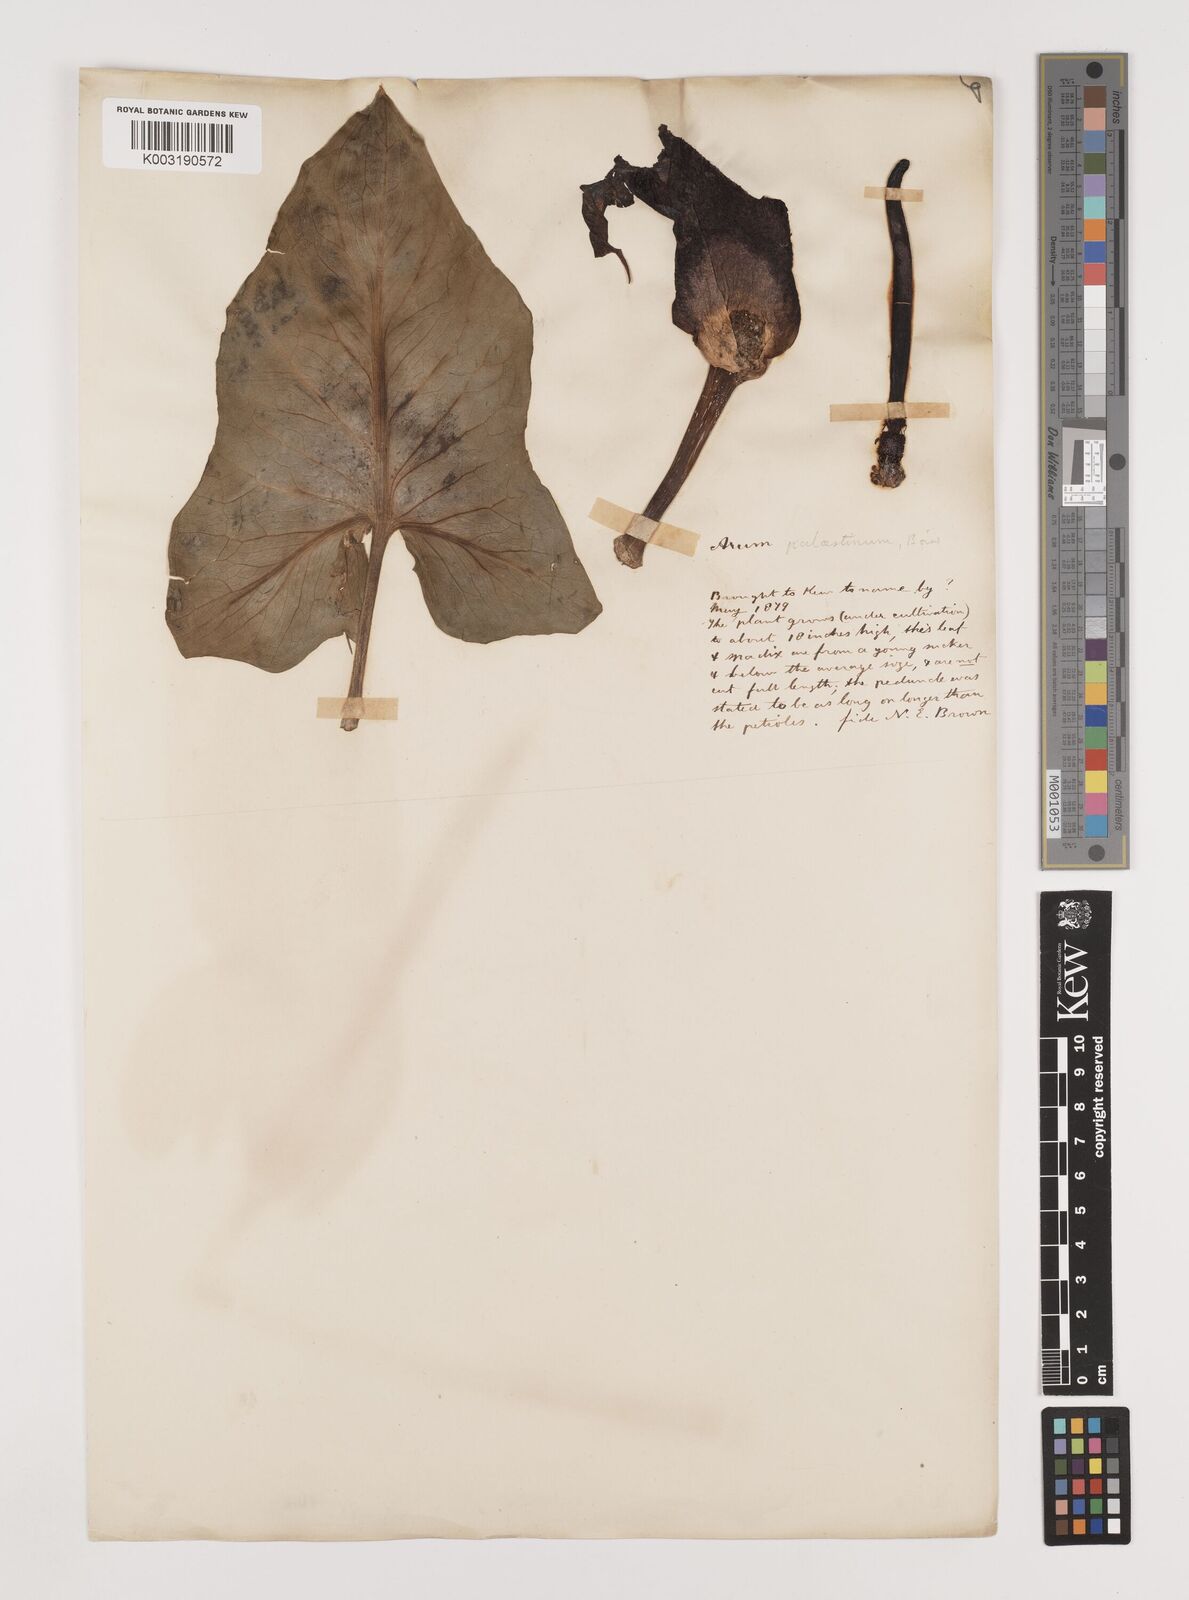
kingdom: Plantae
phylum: Tracheophyta
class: Liliopsida
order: Alismatales
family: Araceae
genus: Arum
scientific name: Arum palaestinum
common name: Solomon's lily
